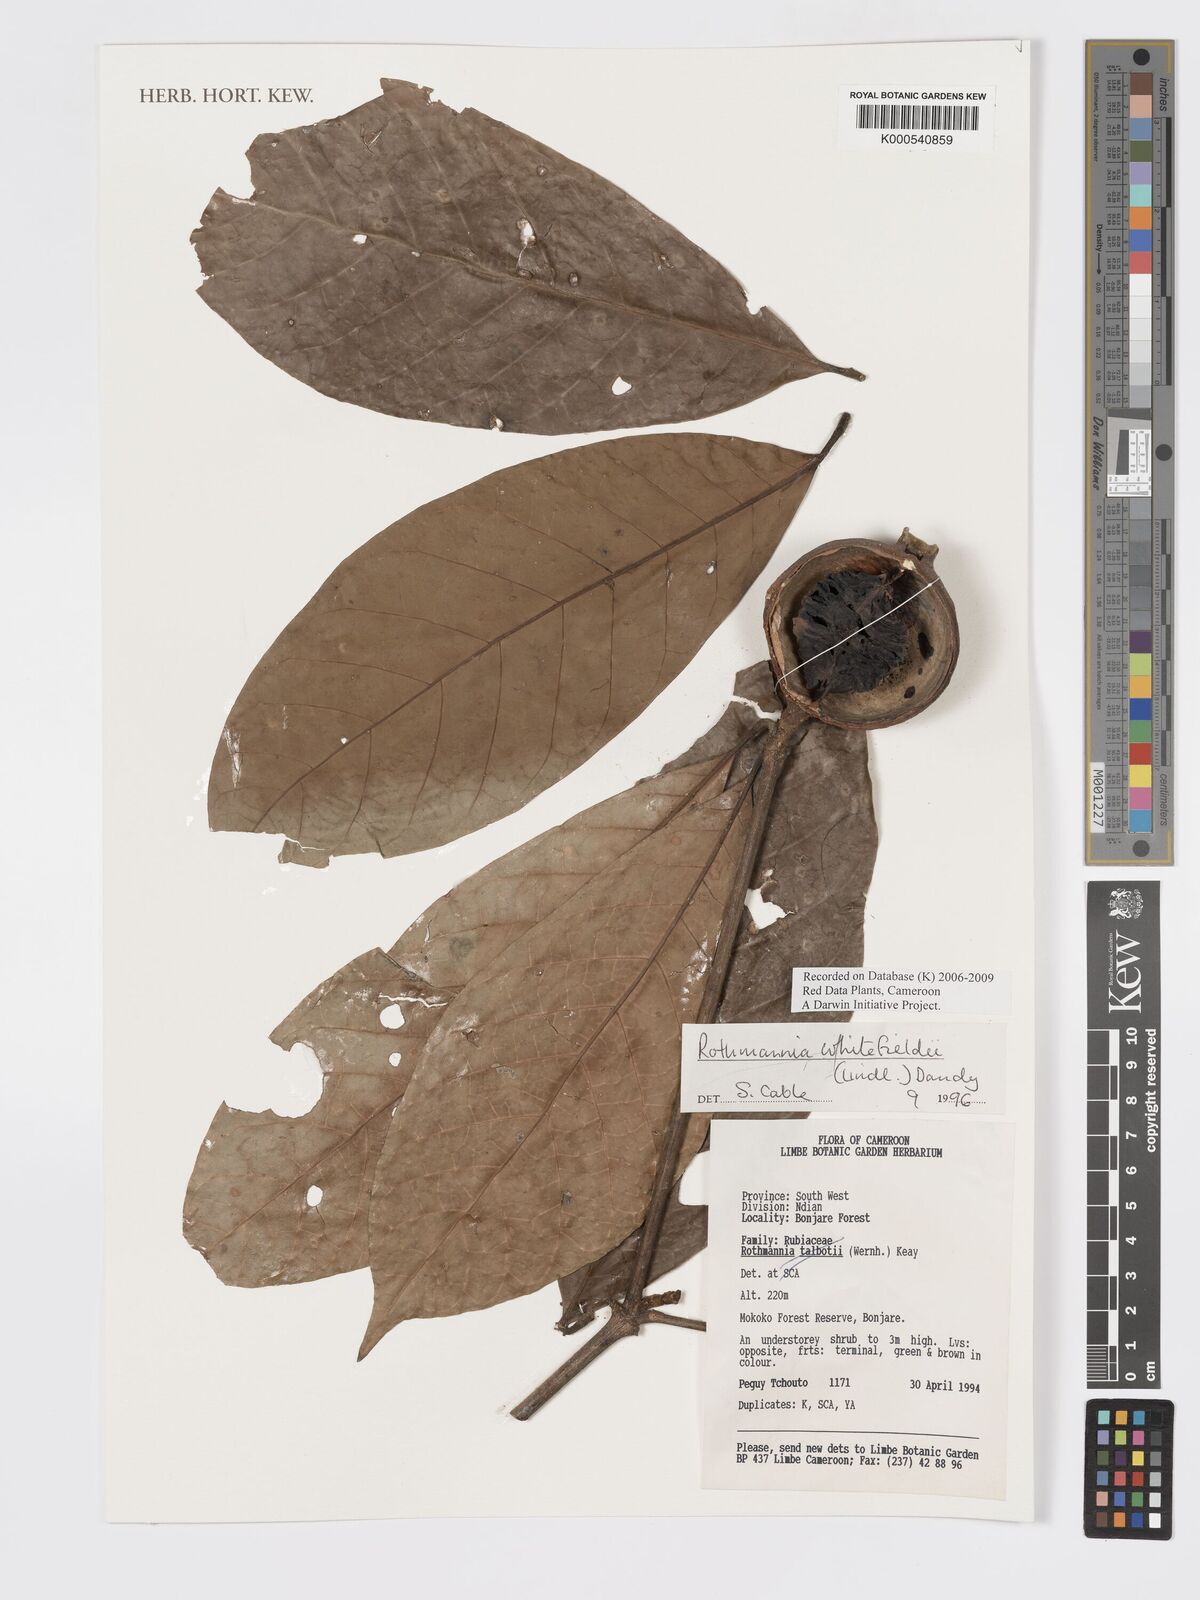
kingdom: Plantae
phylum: Tracheophyta
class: Magnoliopsida
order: Gentianales
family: Rubiaceae
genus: Rothmannia
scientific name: Rothmannia whitfieldii
